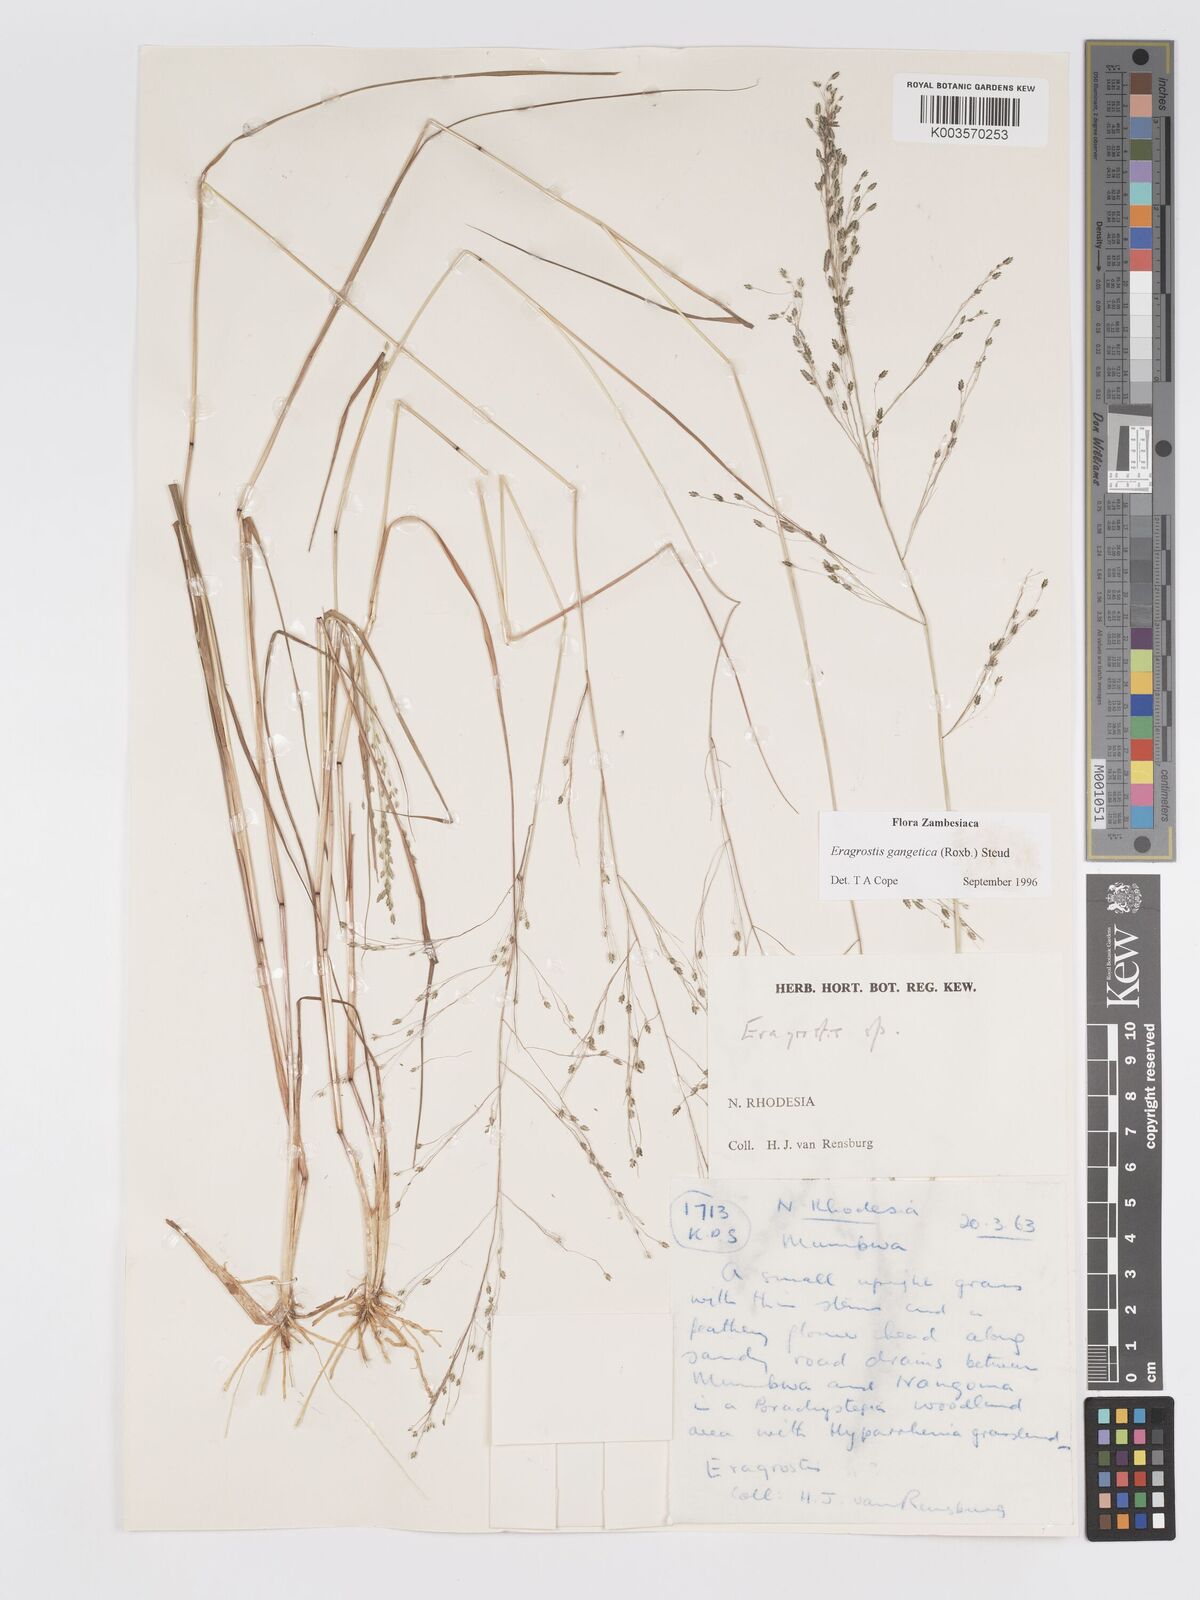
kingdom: Plantae
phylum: Tracheophyta
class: Liliopsida
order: Poales
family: Poaceae
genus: Eragrostis
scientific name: Eragrostis gangetica
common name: Slimflower lovegrass
